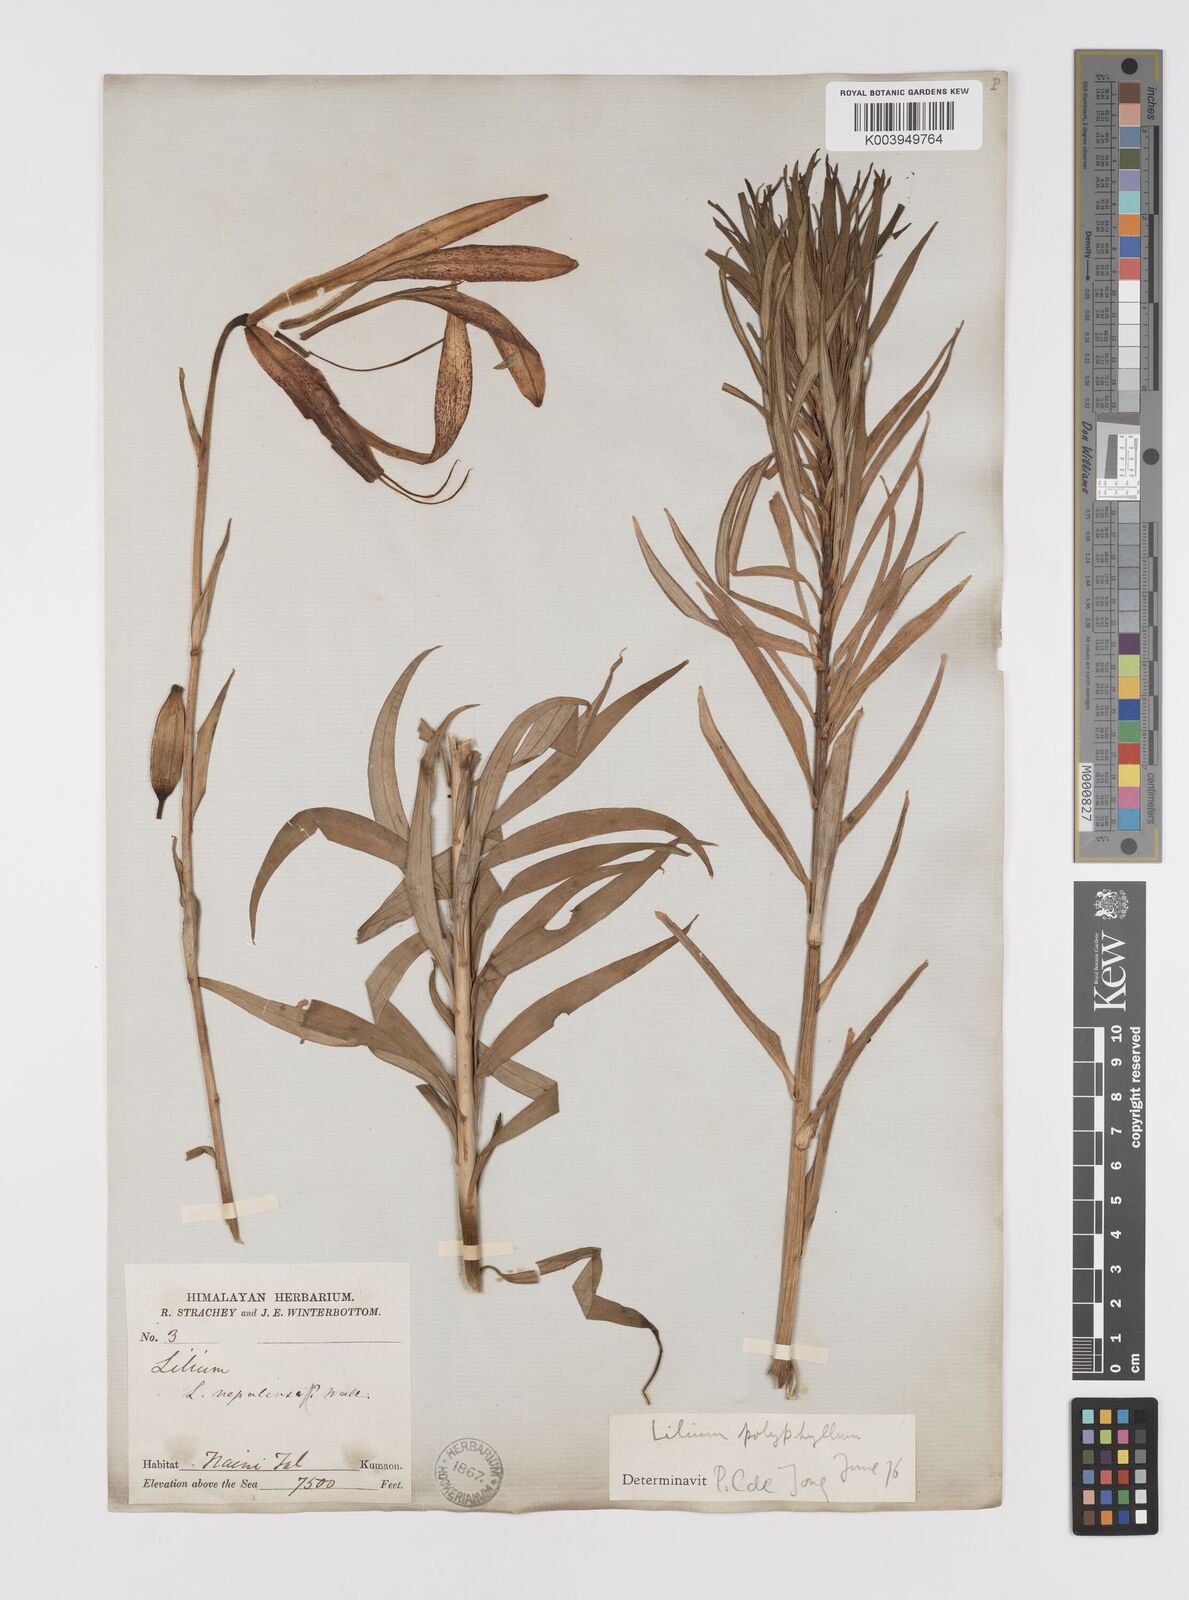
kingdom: Plantae
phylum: Tracheophyta
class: Liliopsida
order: Liliales
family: Liliaceae
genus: Lilium
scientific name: Lilium polyphyllum
